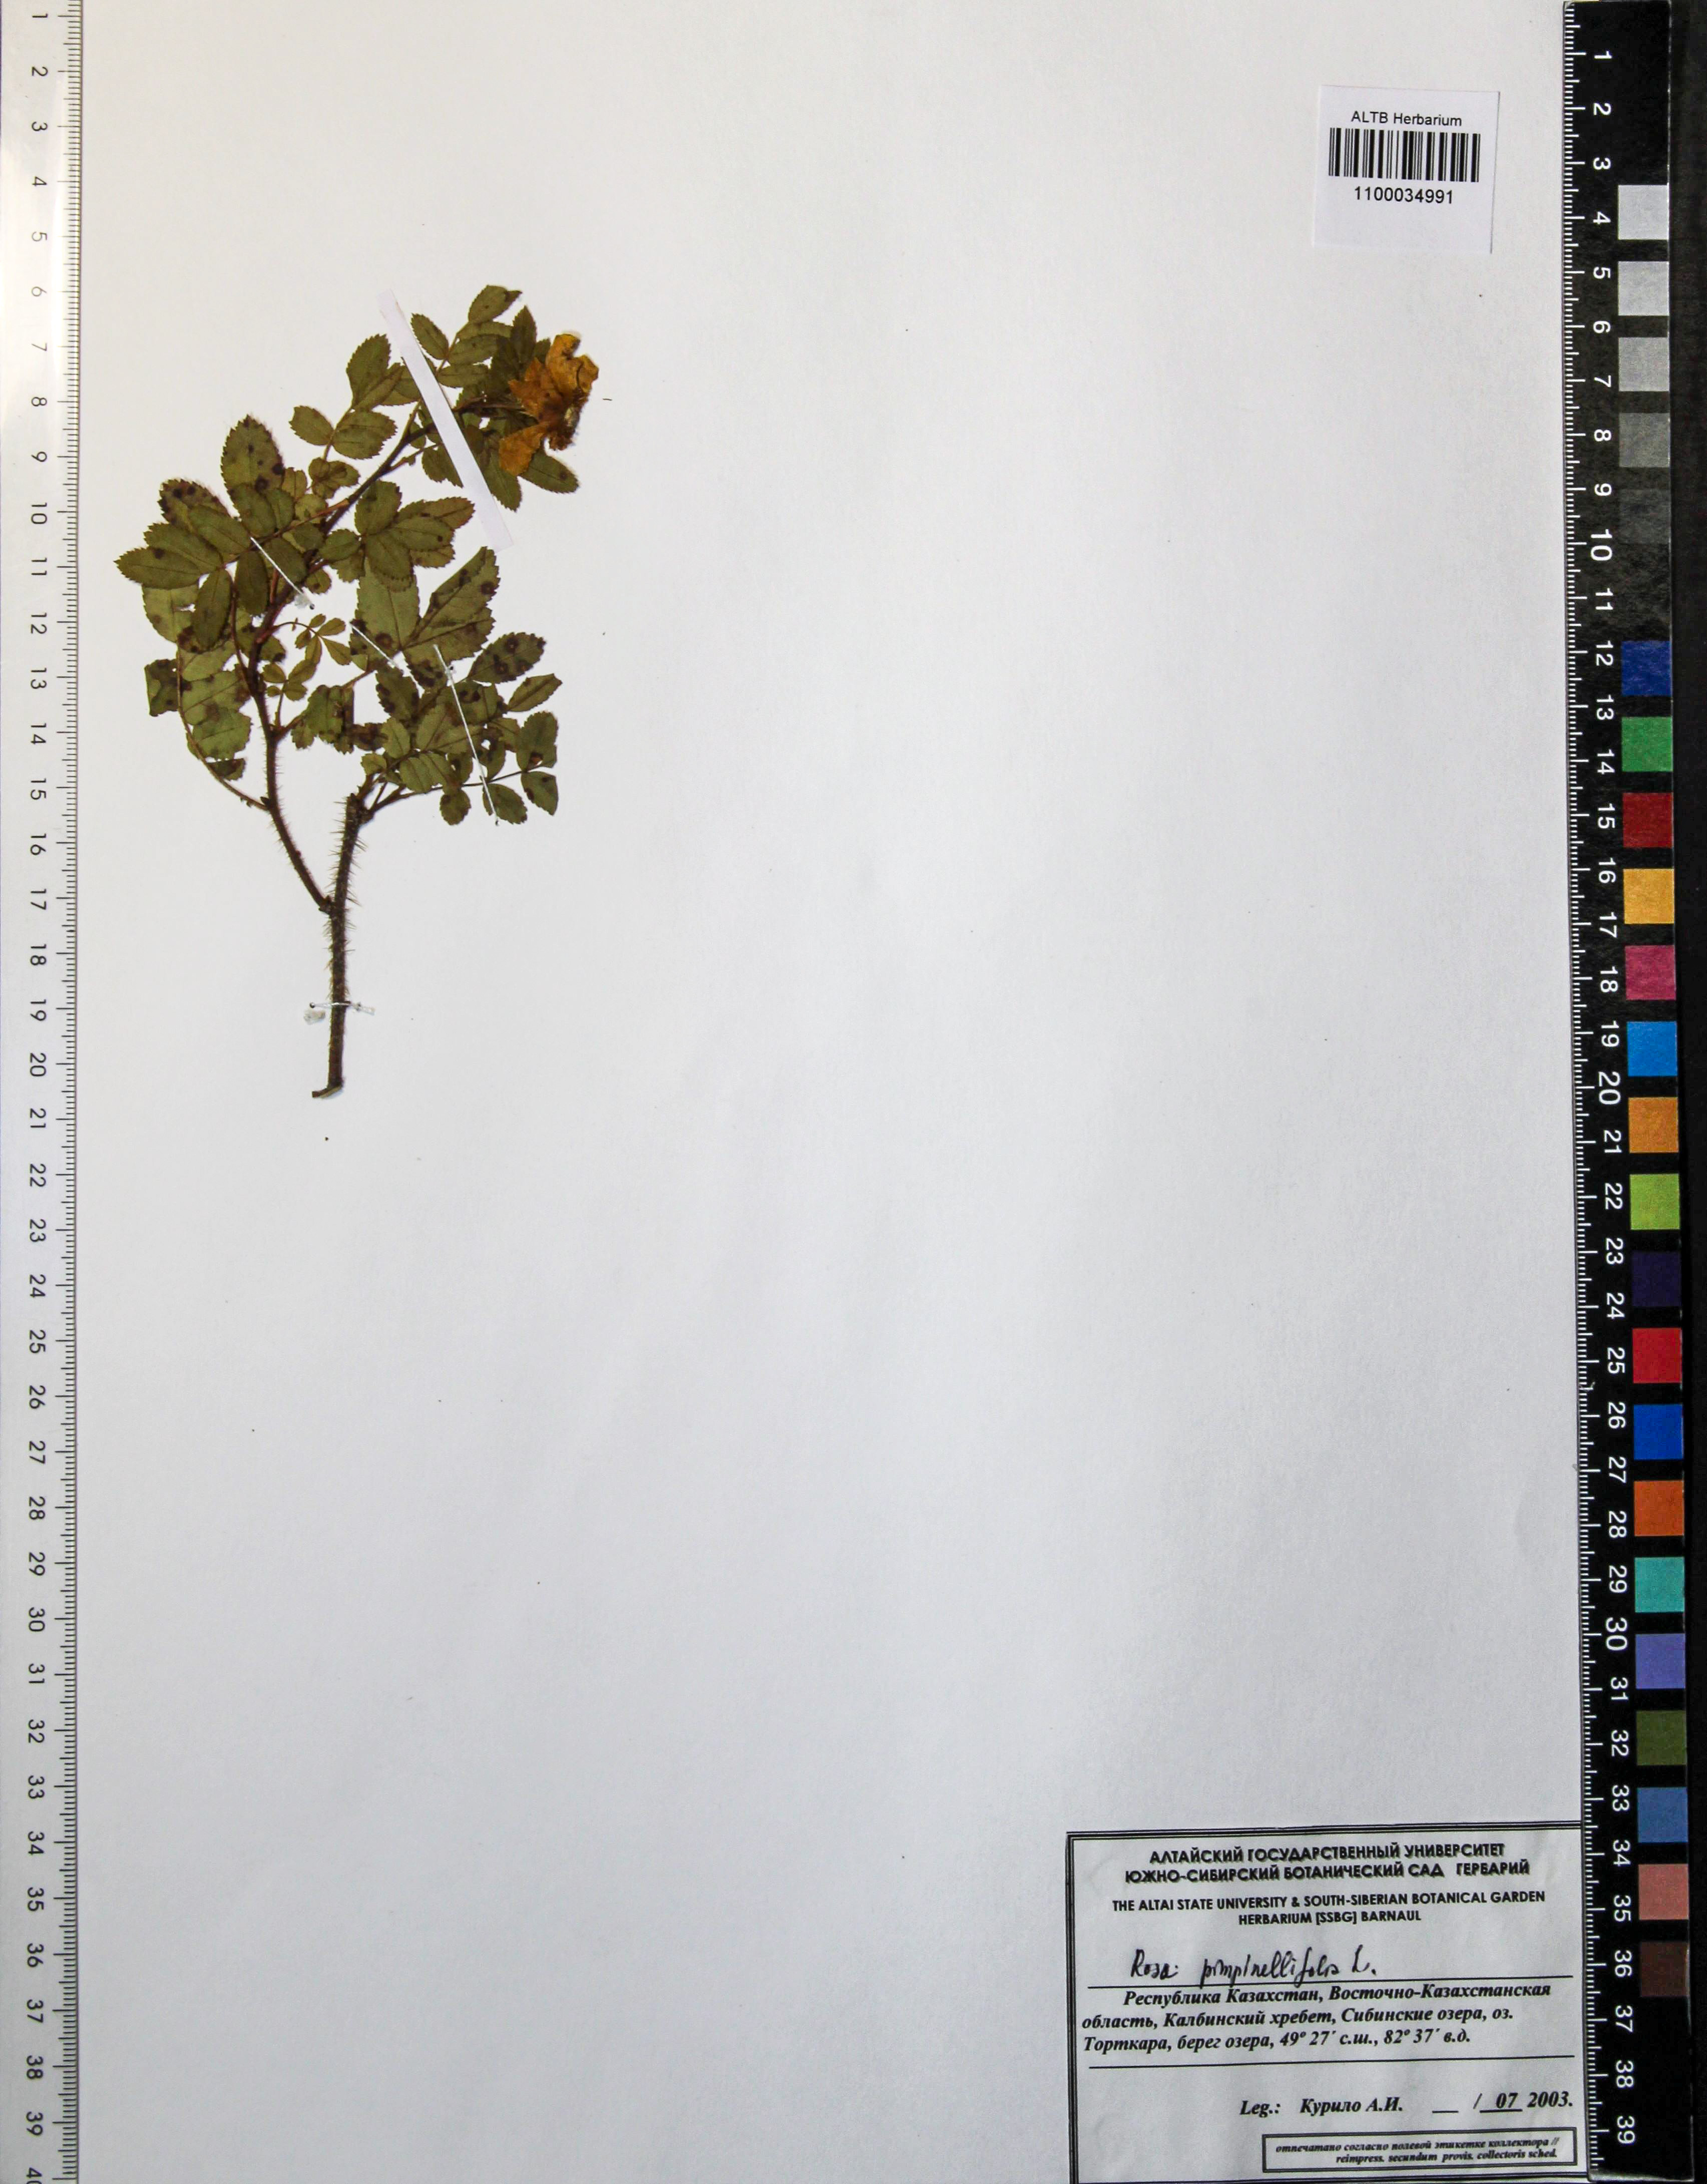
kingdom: Plantae
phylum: Tracheophyta
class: Magnoliopsida
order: Rosales
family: Rosaceae
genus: Rosa
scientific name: Rosa spinosissima
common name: Burnet rose
